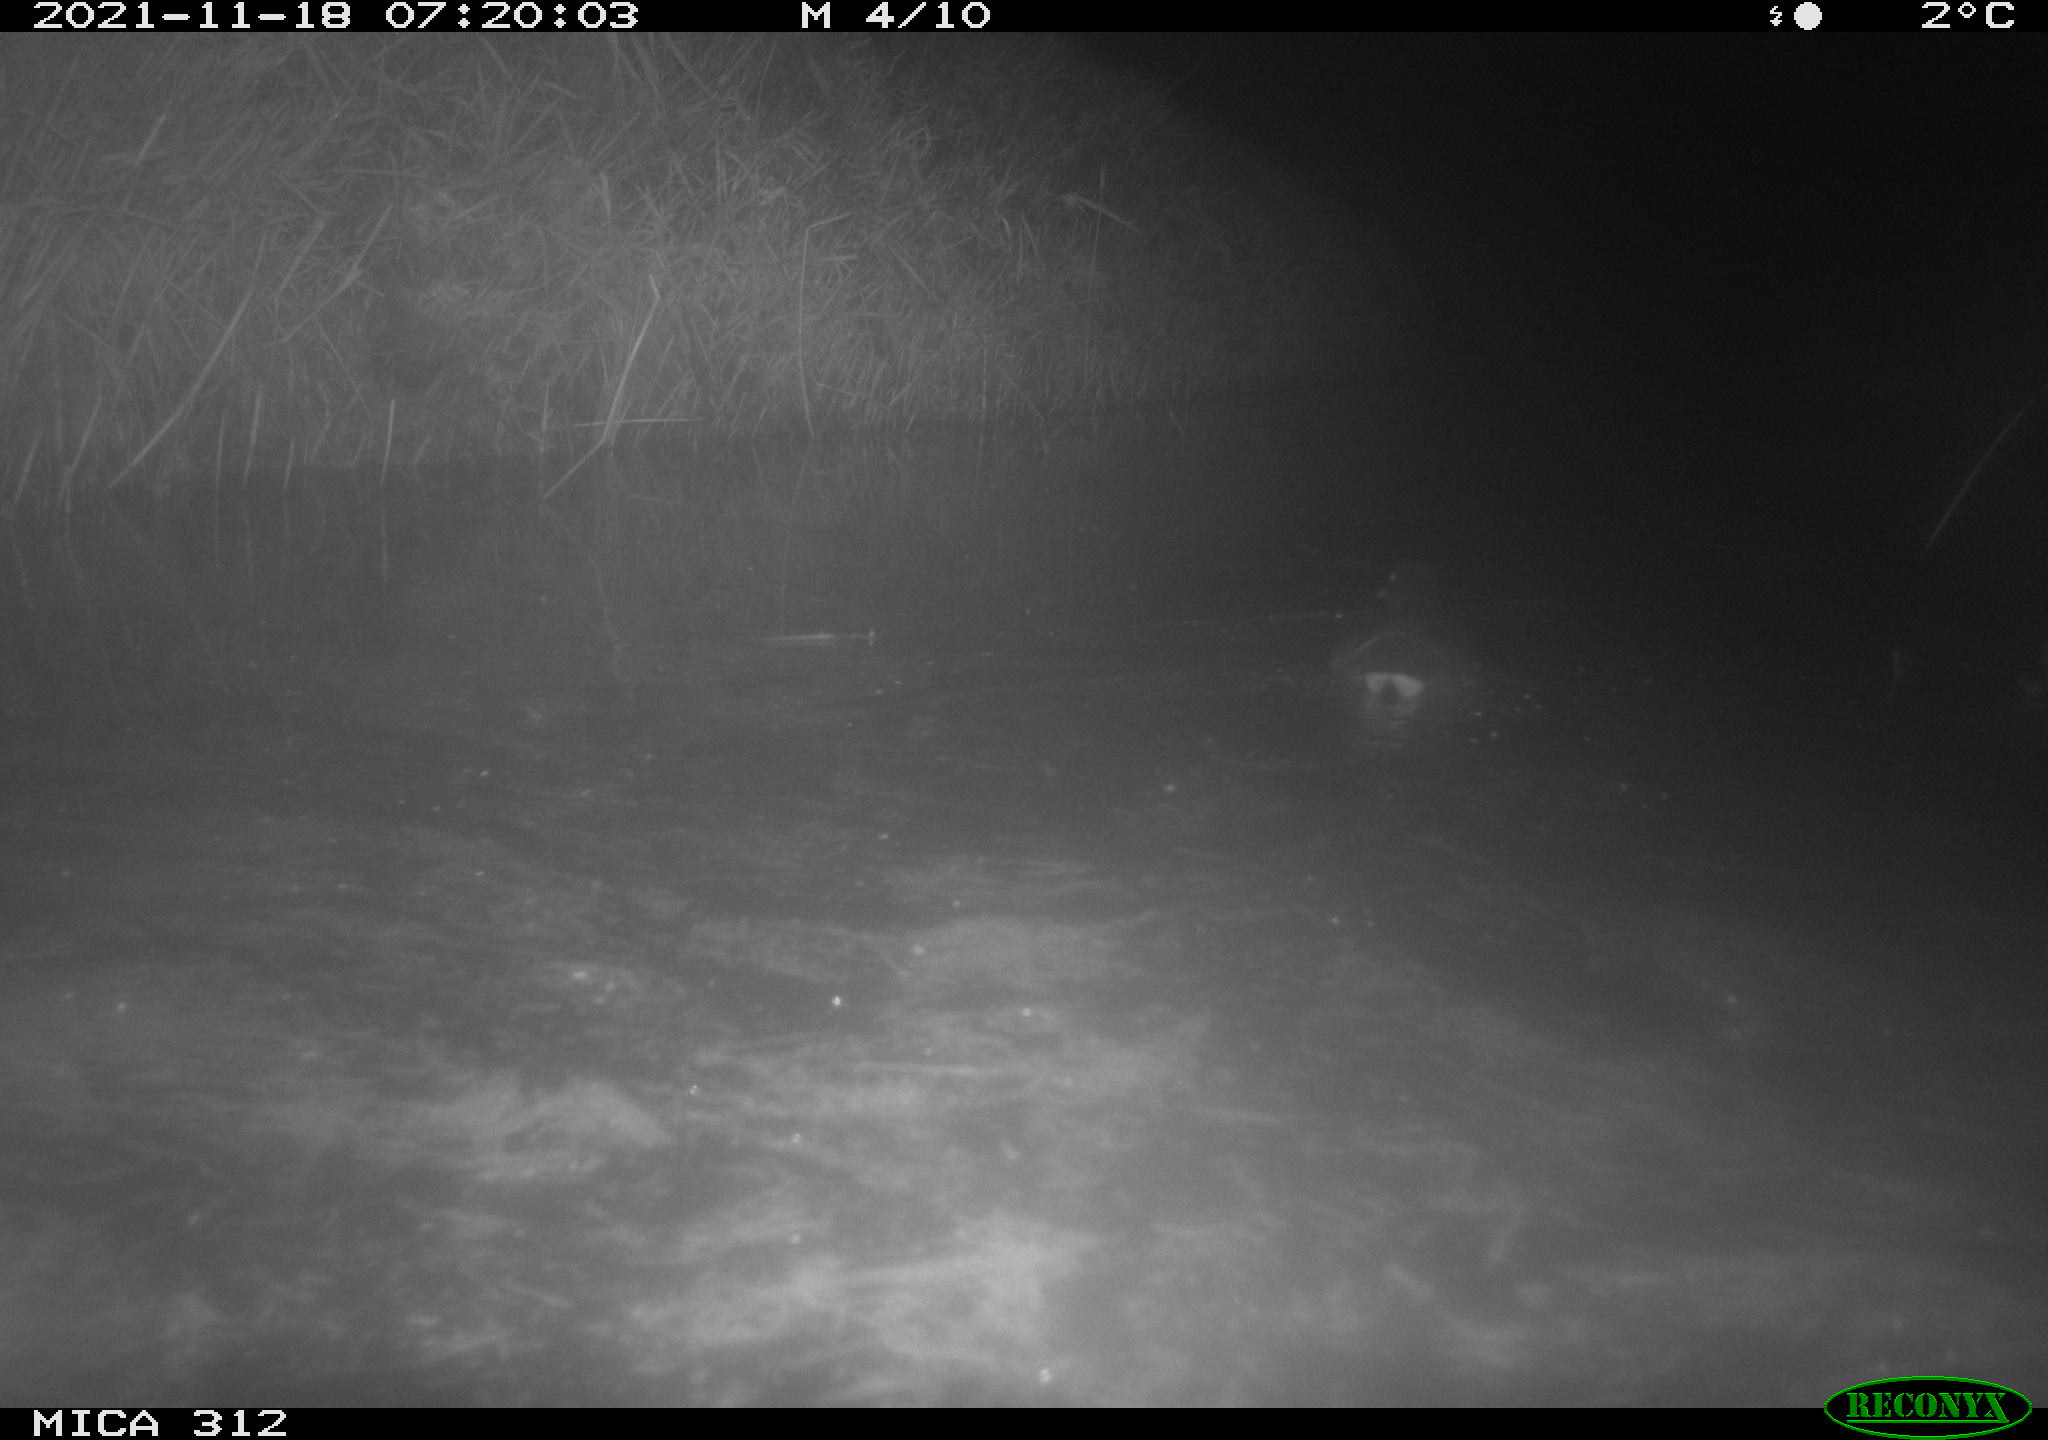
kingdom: Animalia
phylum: Chordata
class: Aves
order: Gruiformes
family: Rallidae
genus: Gallinula
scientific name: Gallinula chloropus
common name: Common moorhen
